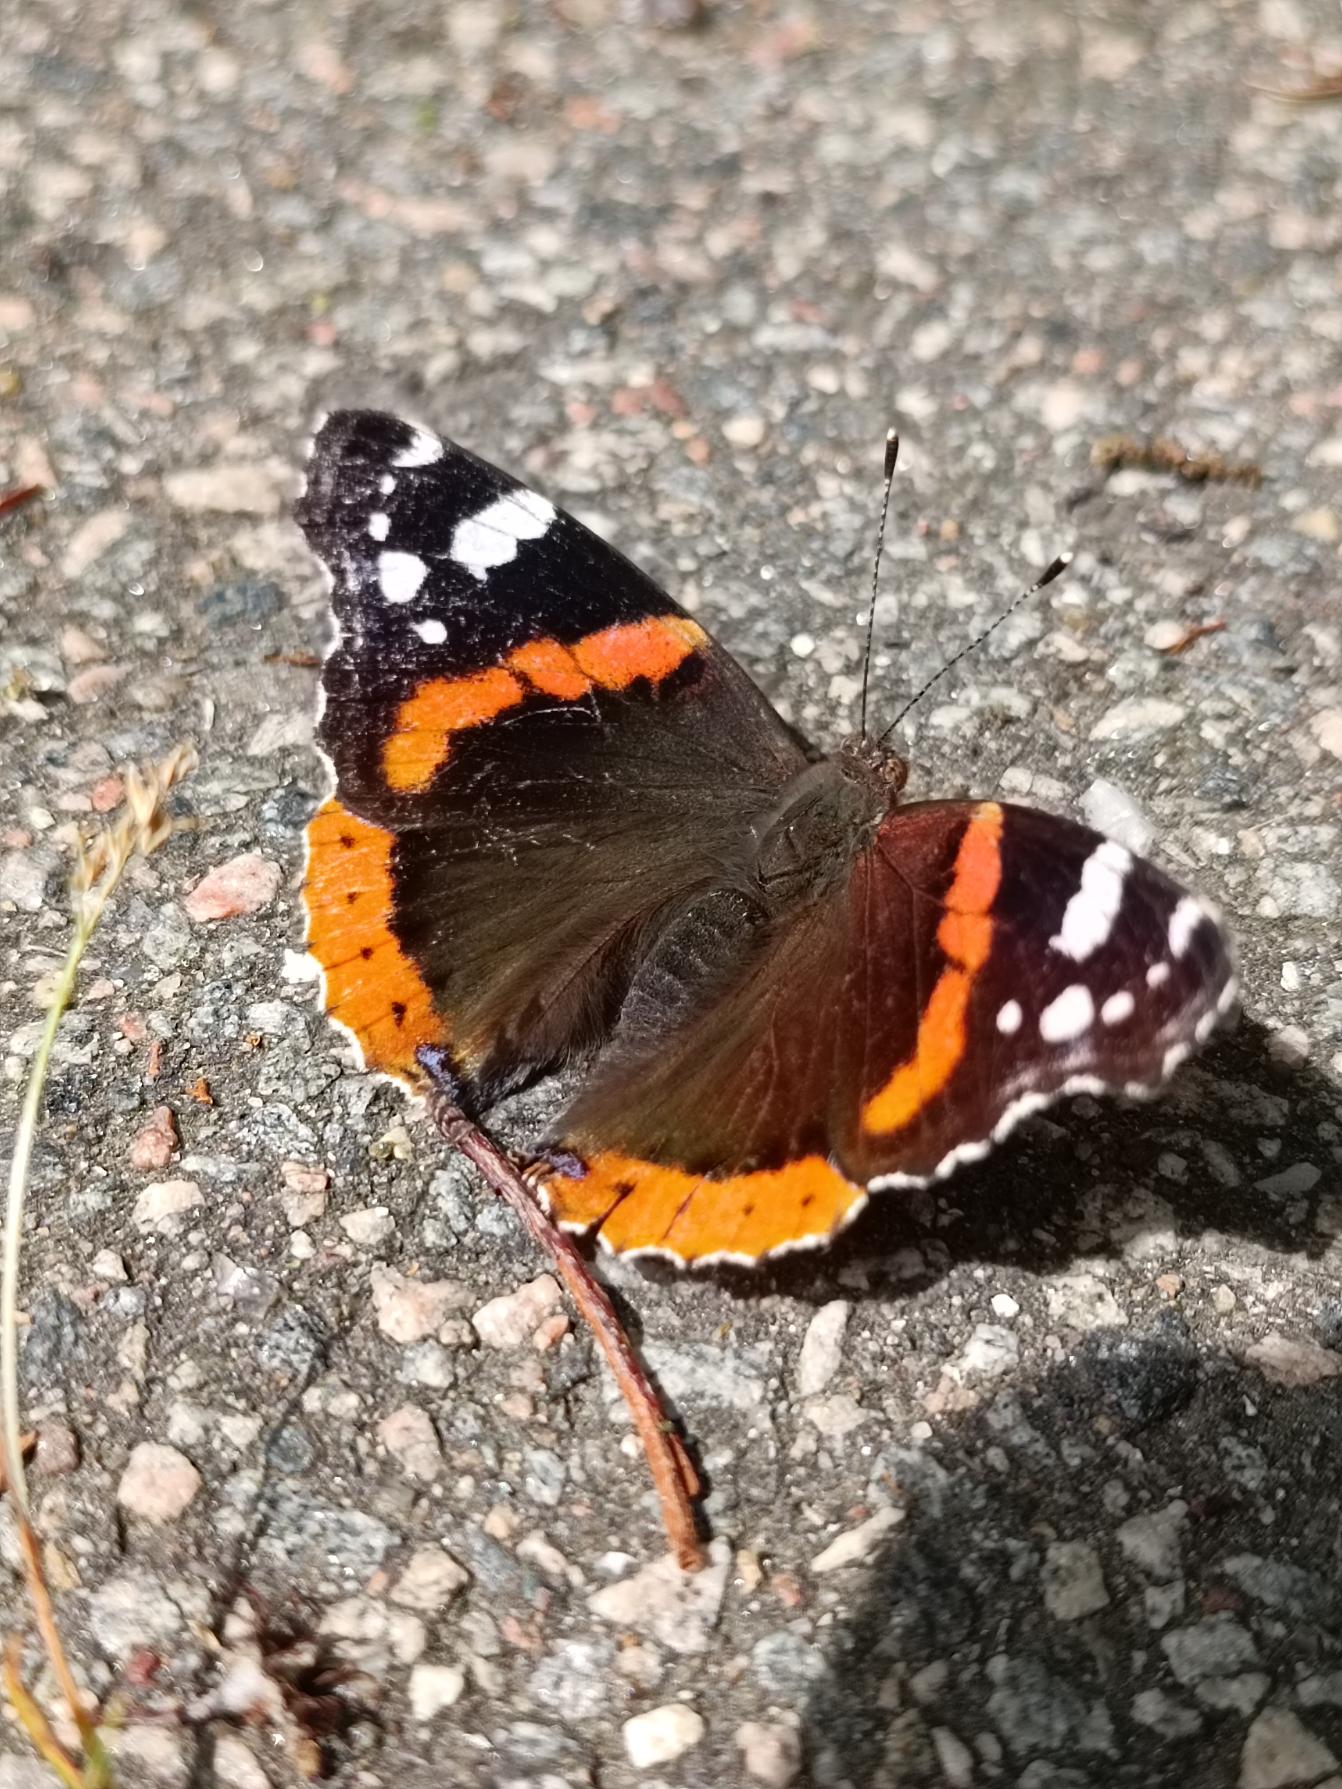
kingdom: Animalia
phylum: Arthropoda
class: Insecta
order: Lepidoptera
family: Nymphalidae
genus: Vanessa
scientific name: Vanessa atalanta
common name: Admiral
